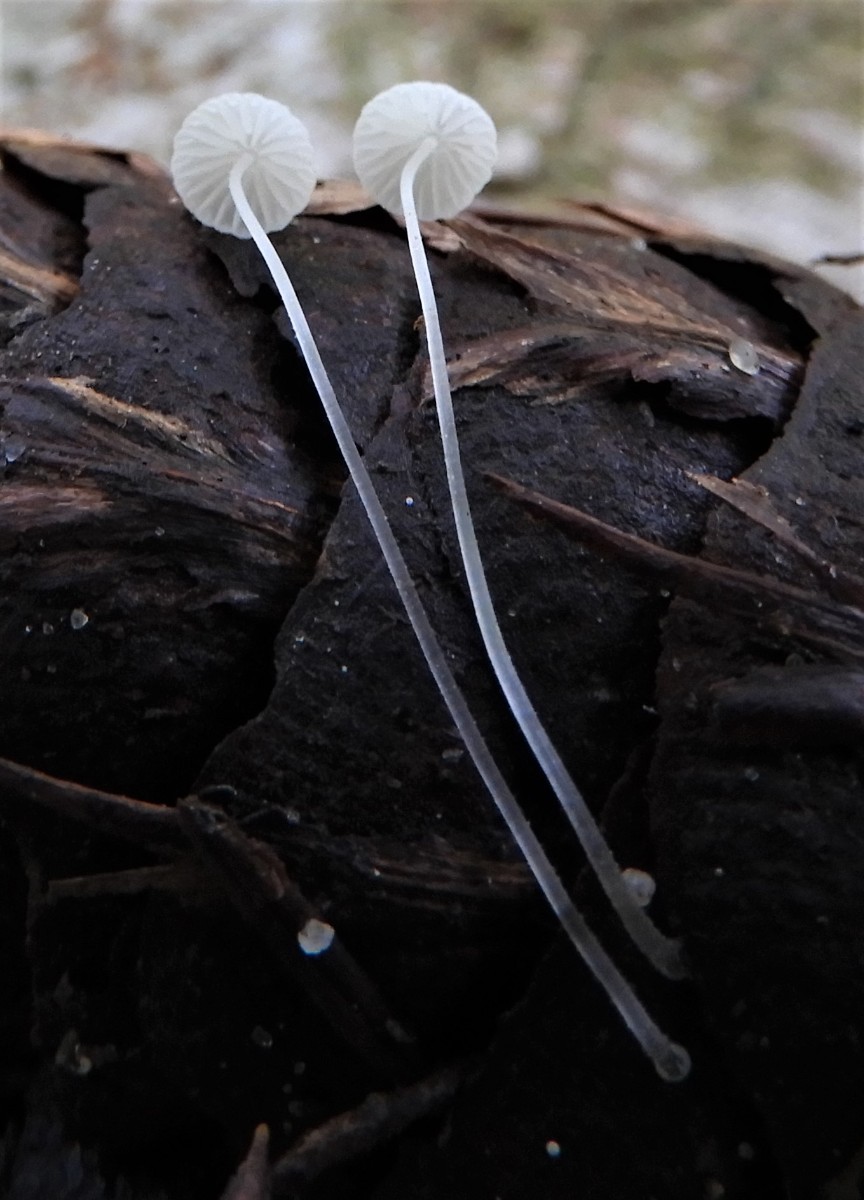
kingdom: Fungi
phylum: Basidiomycota
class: Agaricomycetes
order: Agaricales
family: Mycenaceae
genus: Mycena
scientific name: Mycena tenerrima
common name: pudret huesvamp
